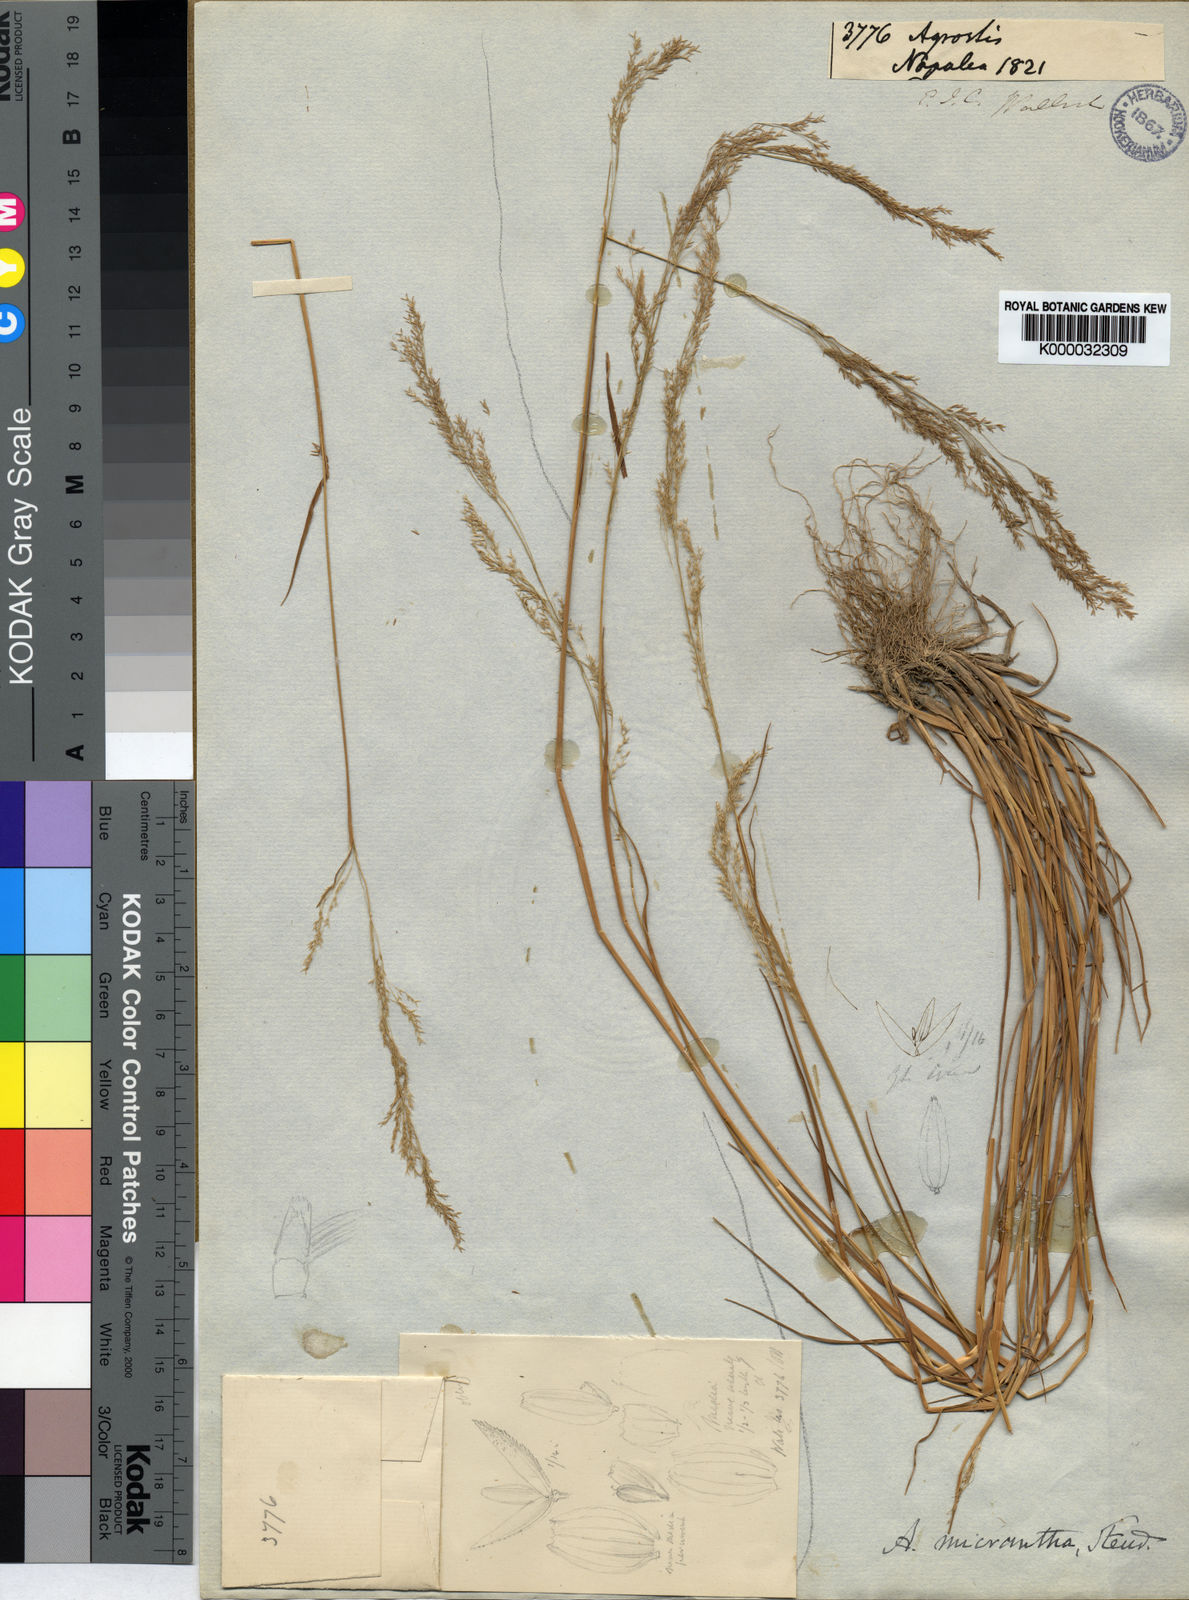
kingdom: Plantae
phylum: Tracheophyta
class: Liliopsida
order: Poales
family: Poaceae
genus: Agrostis
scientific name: Agrostis micrantha
